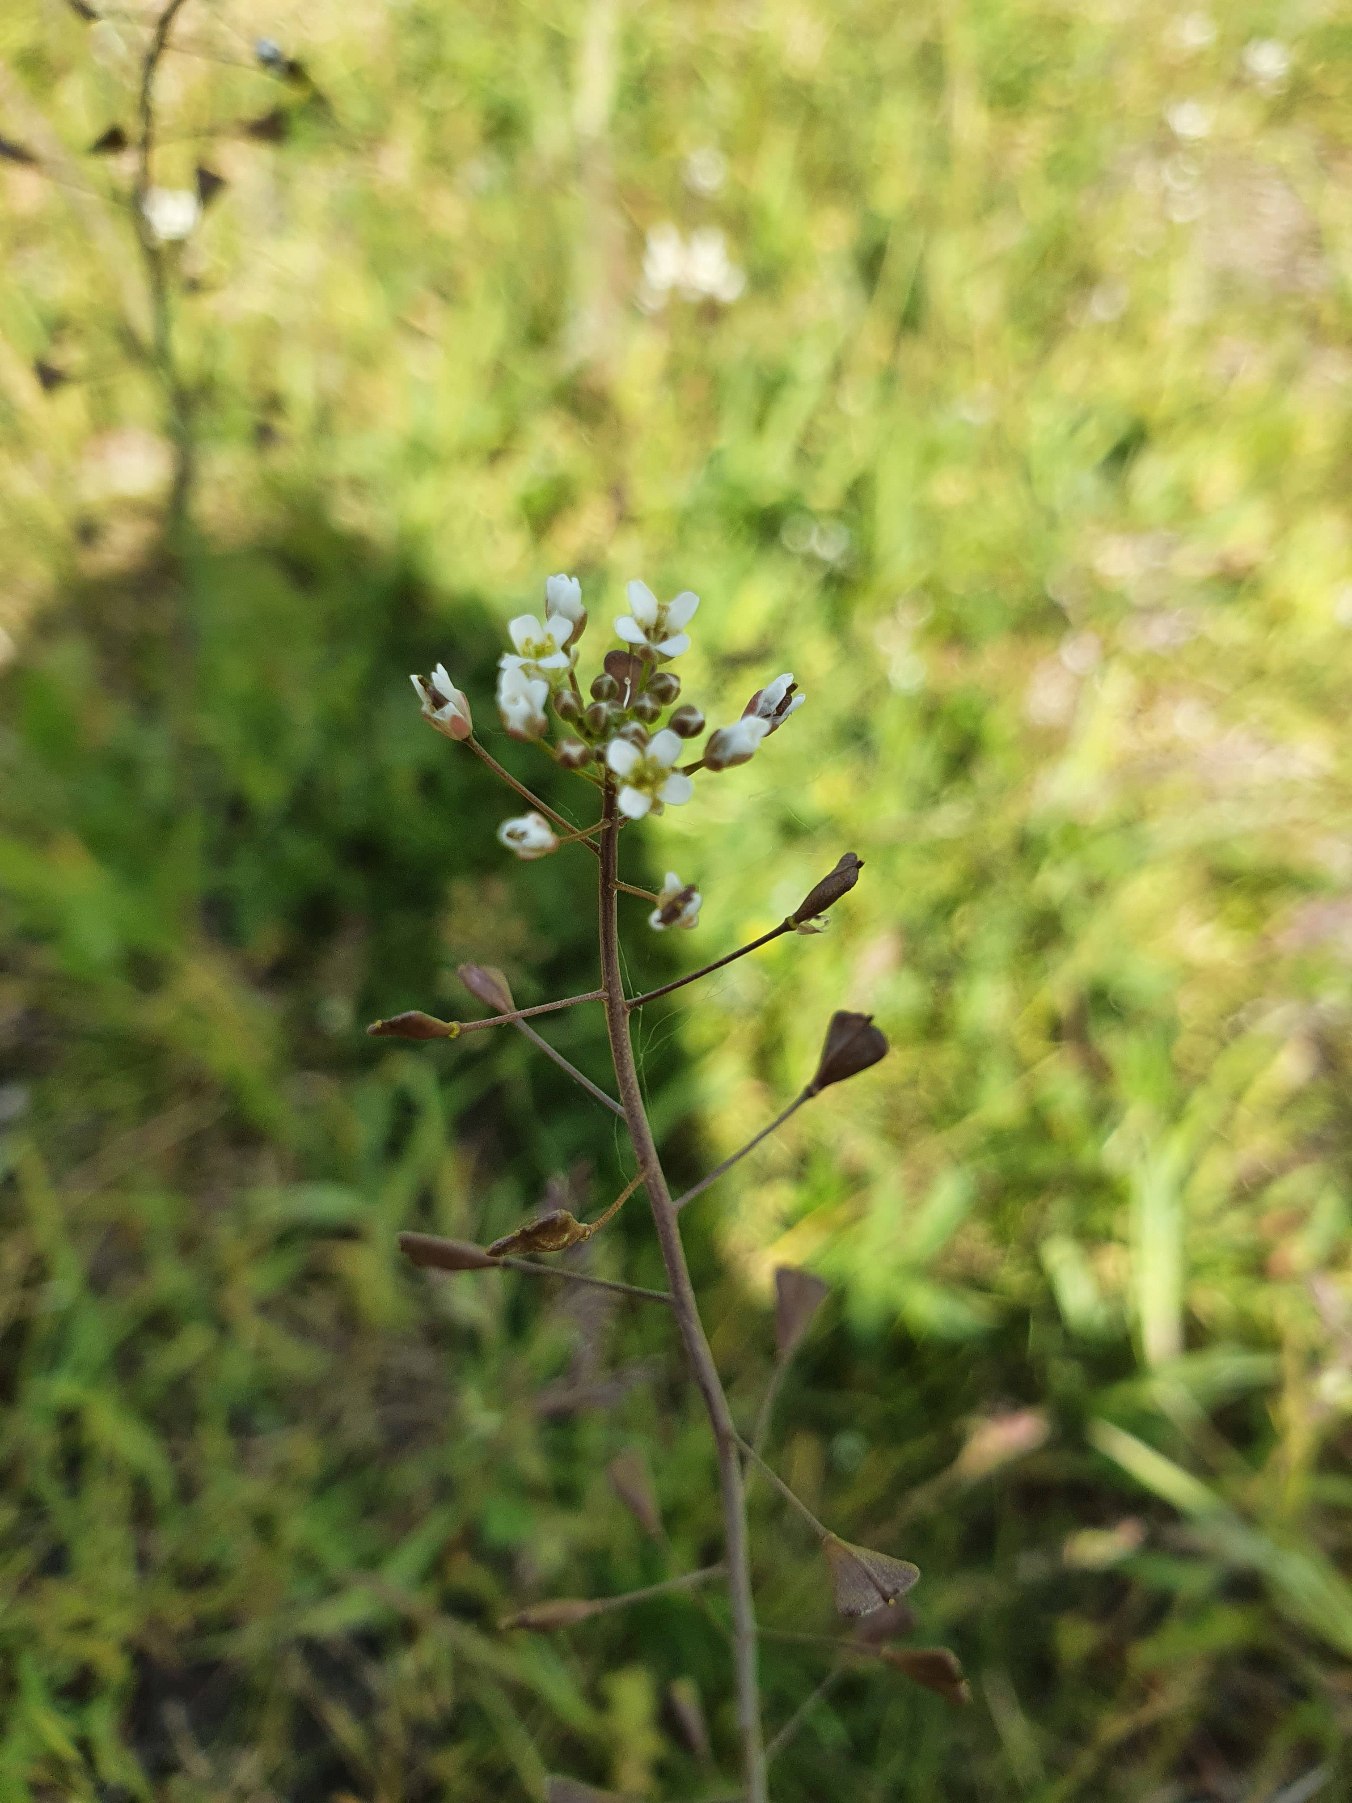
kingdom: Plantae
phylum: Tracheophyta
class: Magnoliopsida
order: Brassicales
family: Brassicaceae
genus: Capsella
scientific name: Capsella bursa-pastoris
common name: Hyrdetaske
